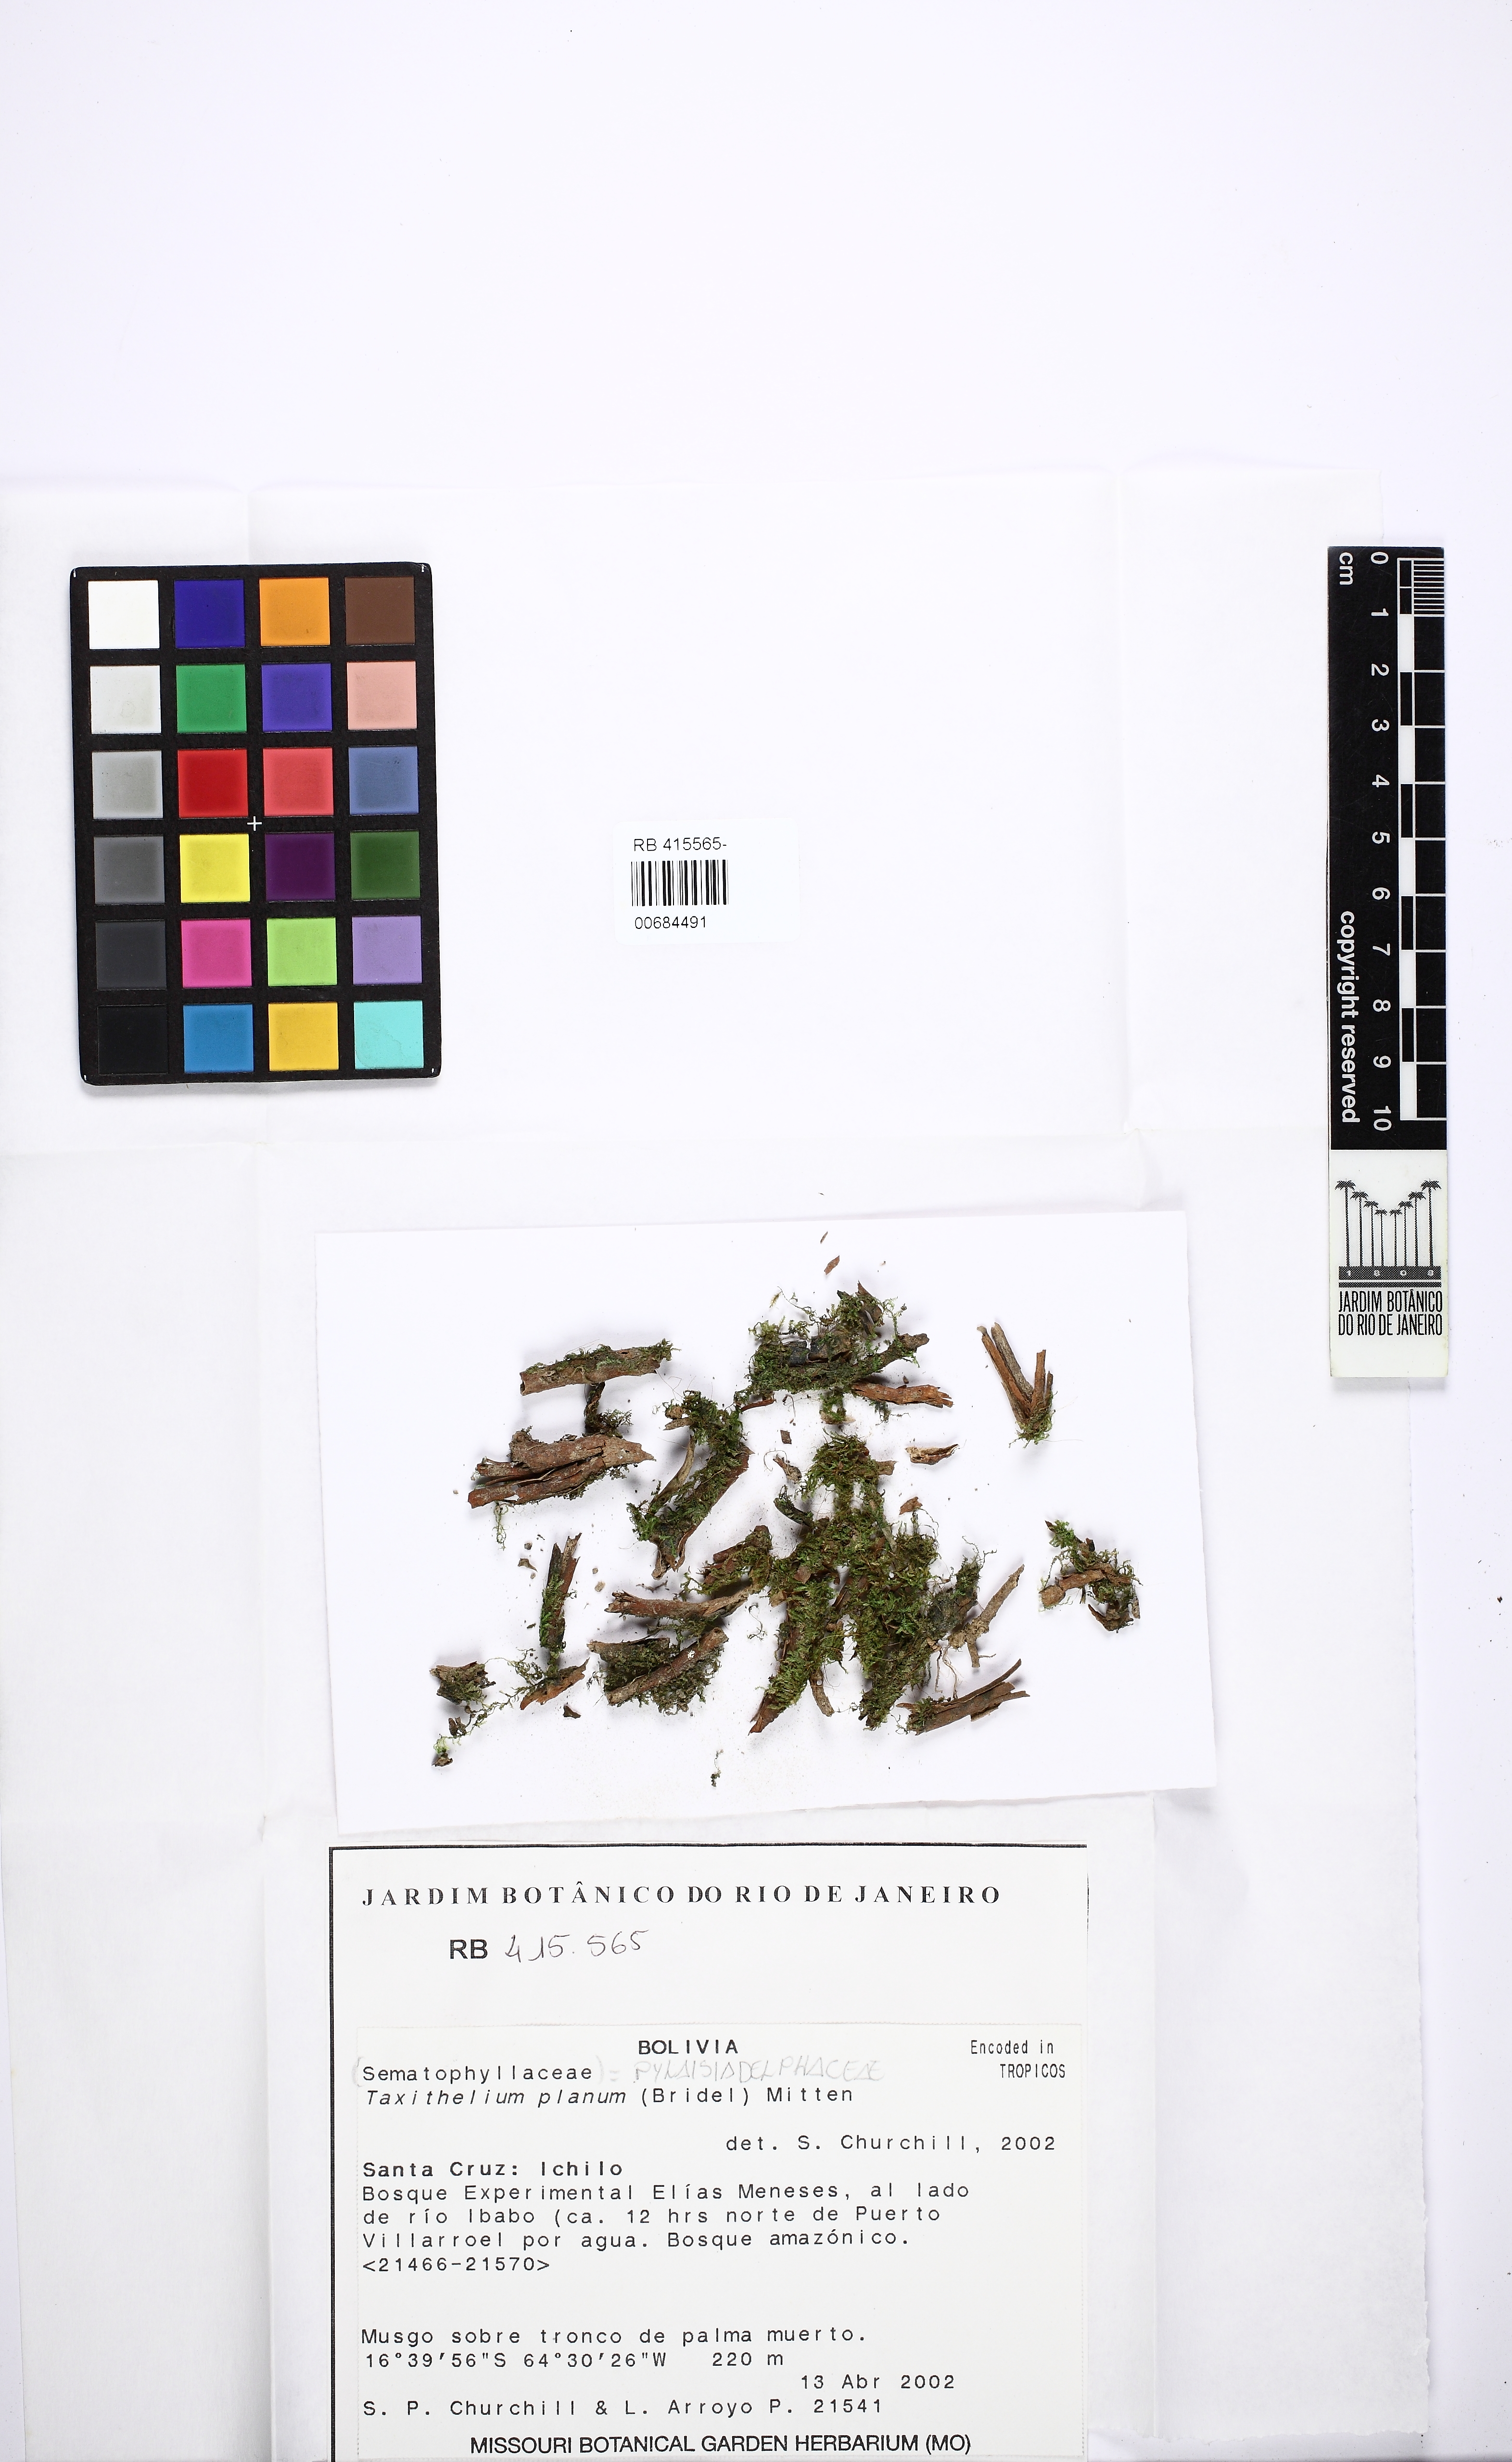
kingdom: Plantae
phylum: Bryophyta
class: Bryopsida
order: Hypnales
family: Pylaisiadelphaceae
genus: Taxithelium
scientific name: Taxithelium planum
